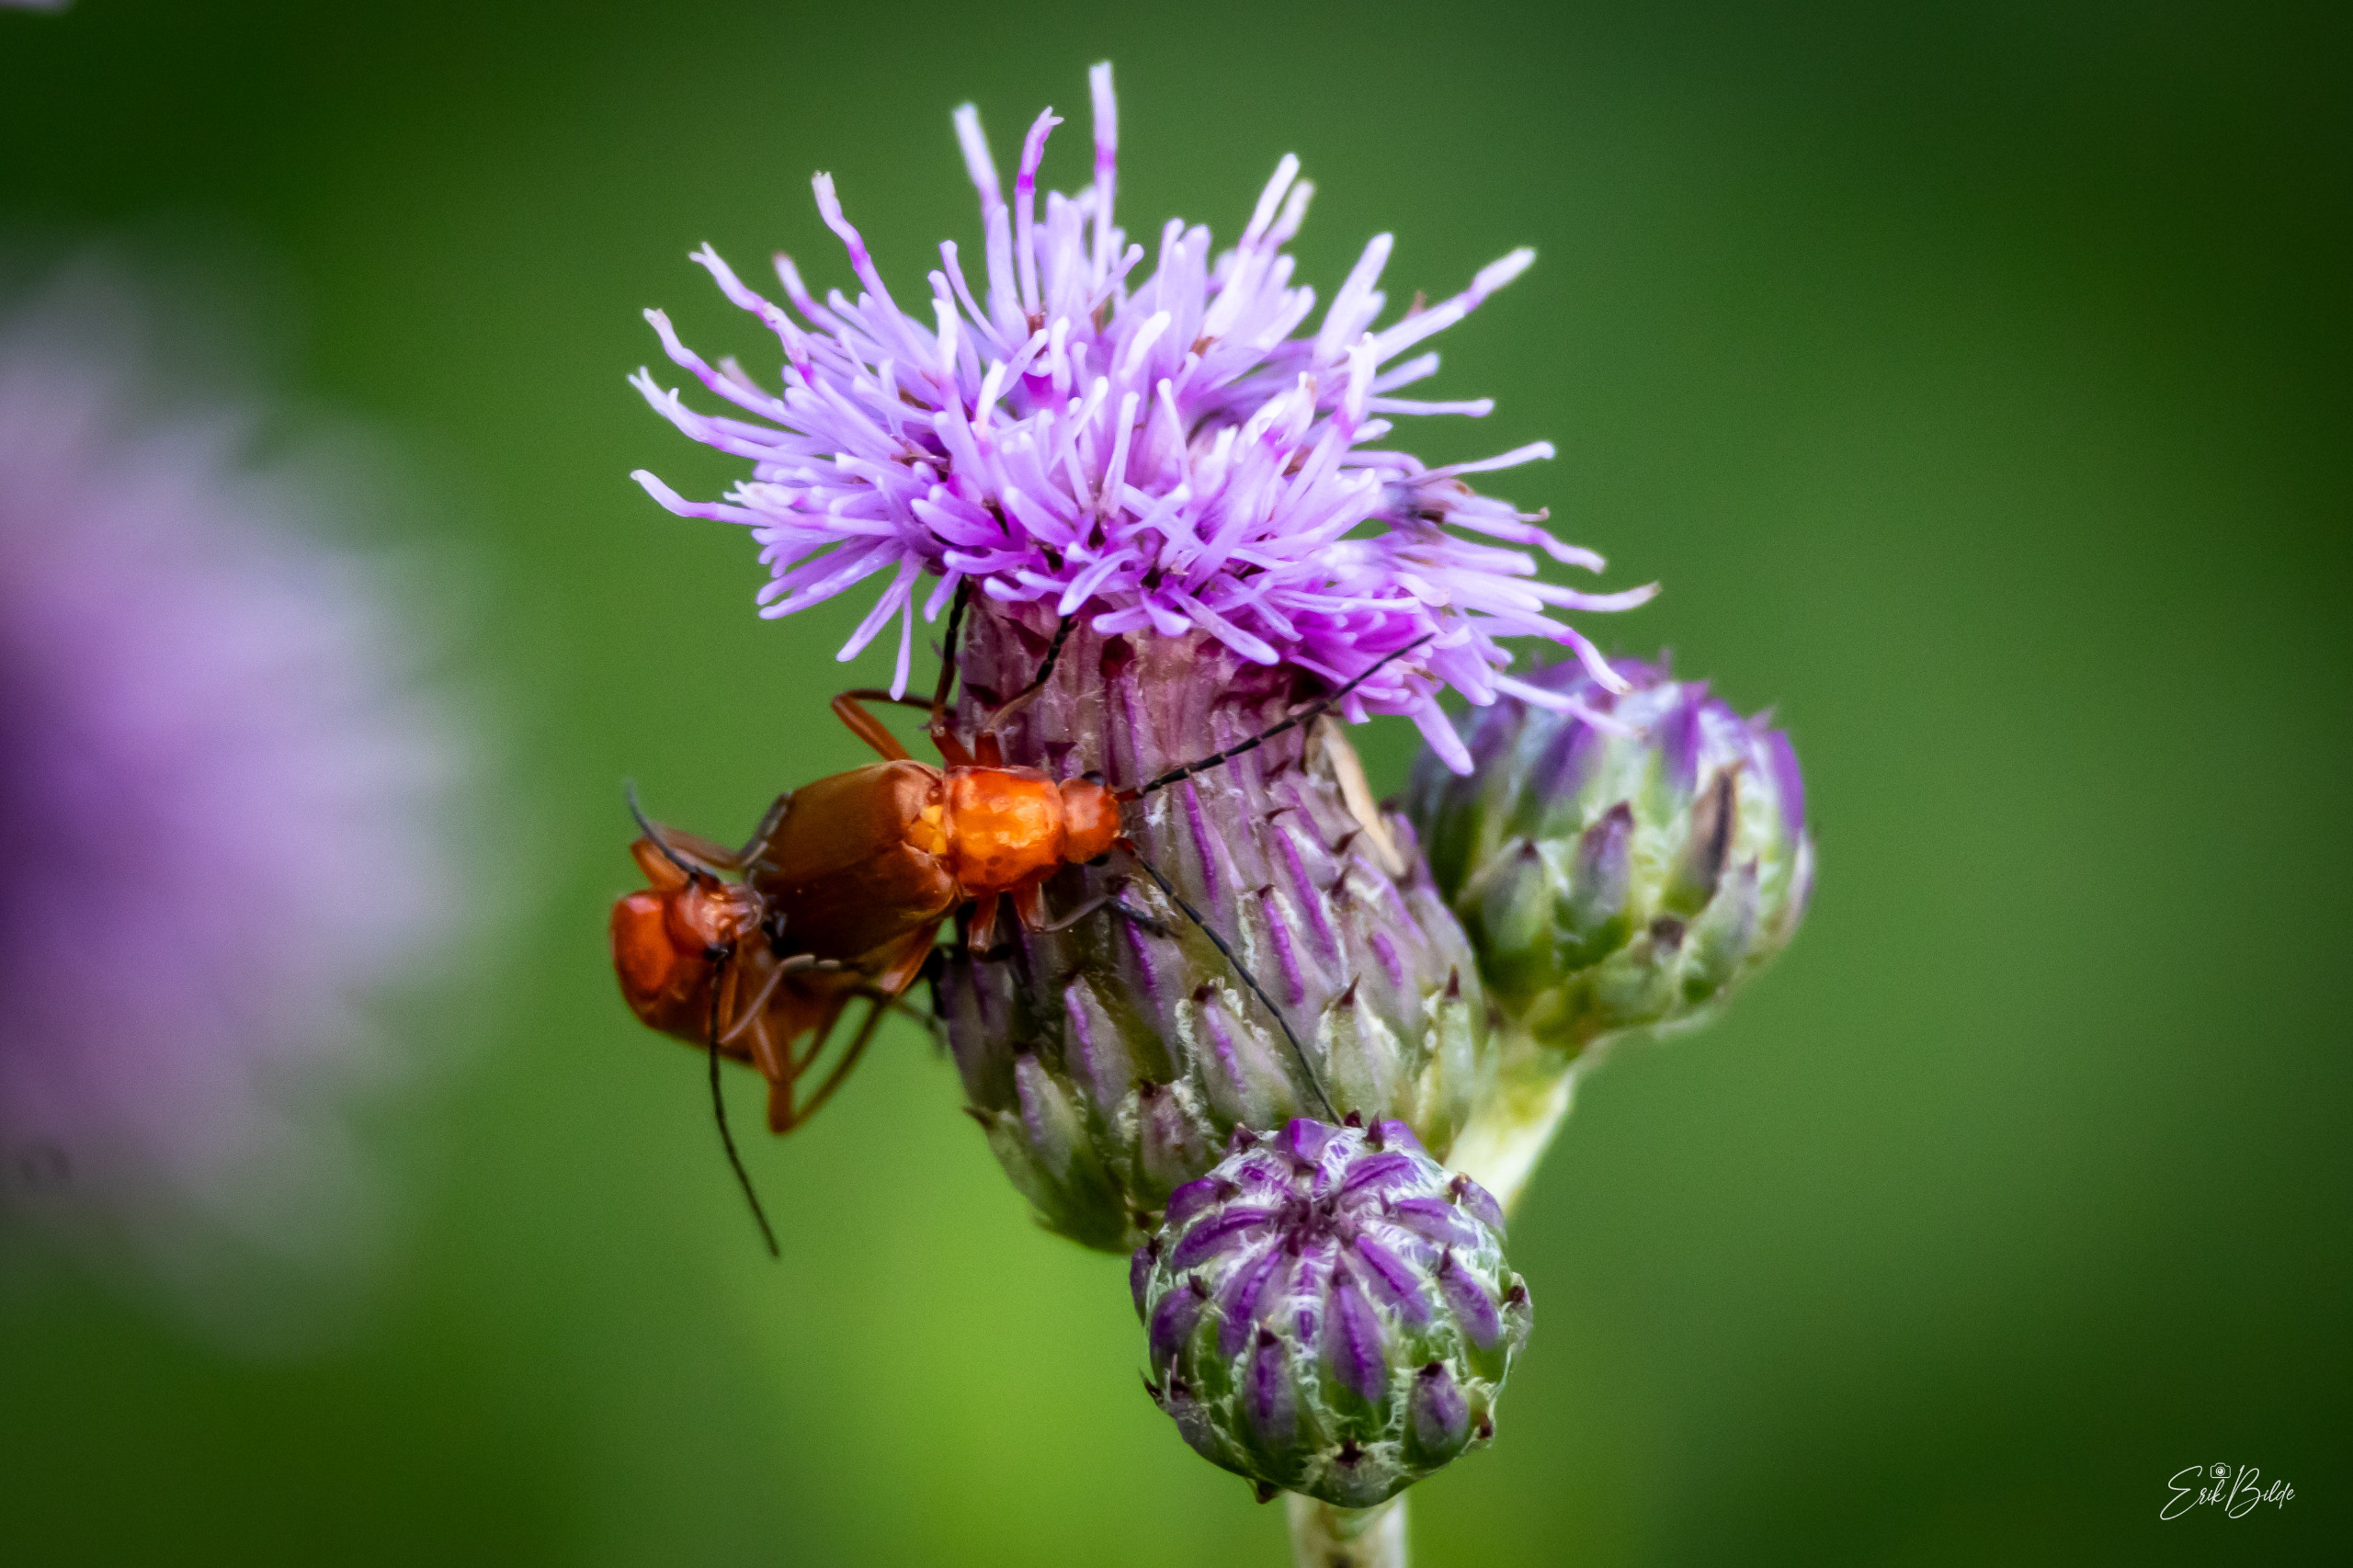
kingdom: Animalia
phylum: Arthropoda
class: Insecta
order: Coleoptera
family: Cantharidae
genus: Rhagonycha
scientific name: Rhagonycha fulva
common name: Præstebille
